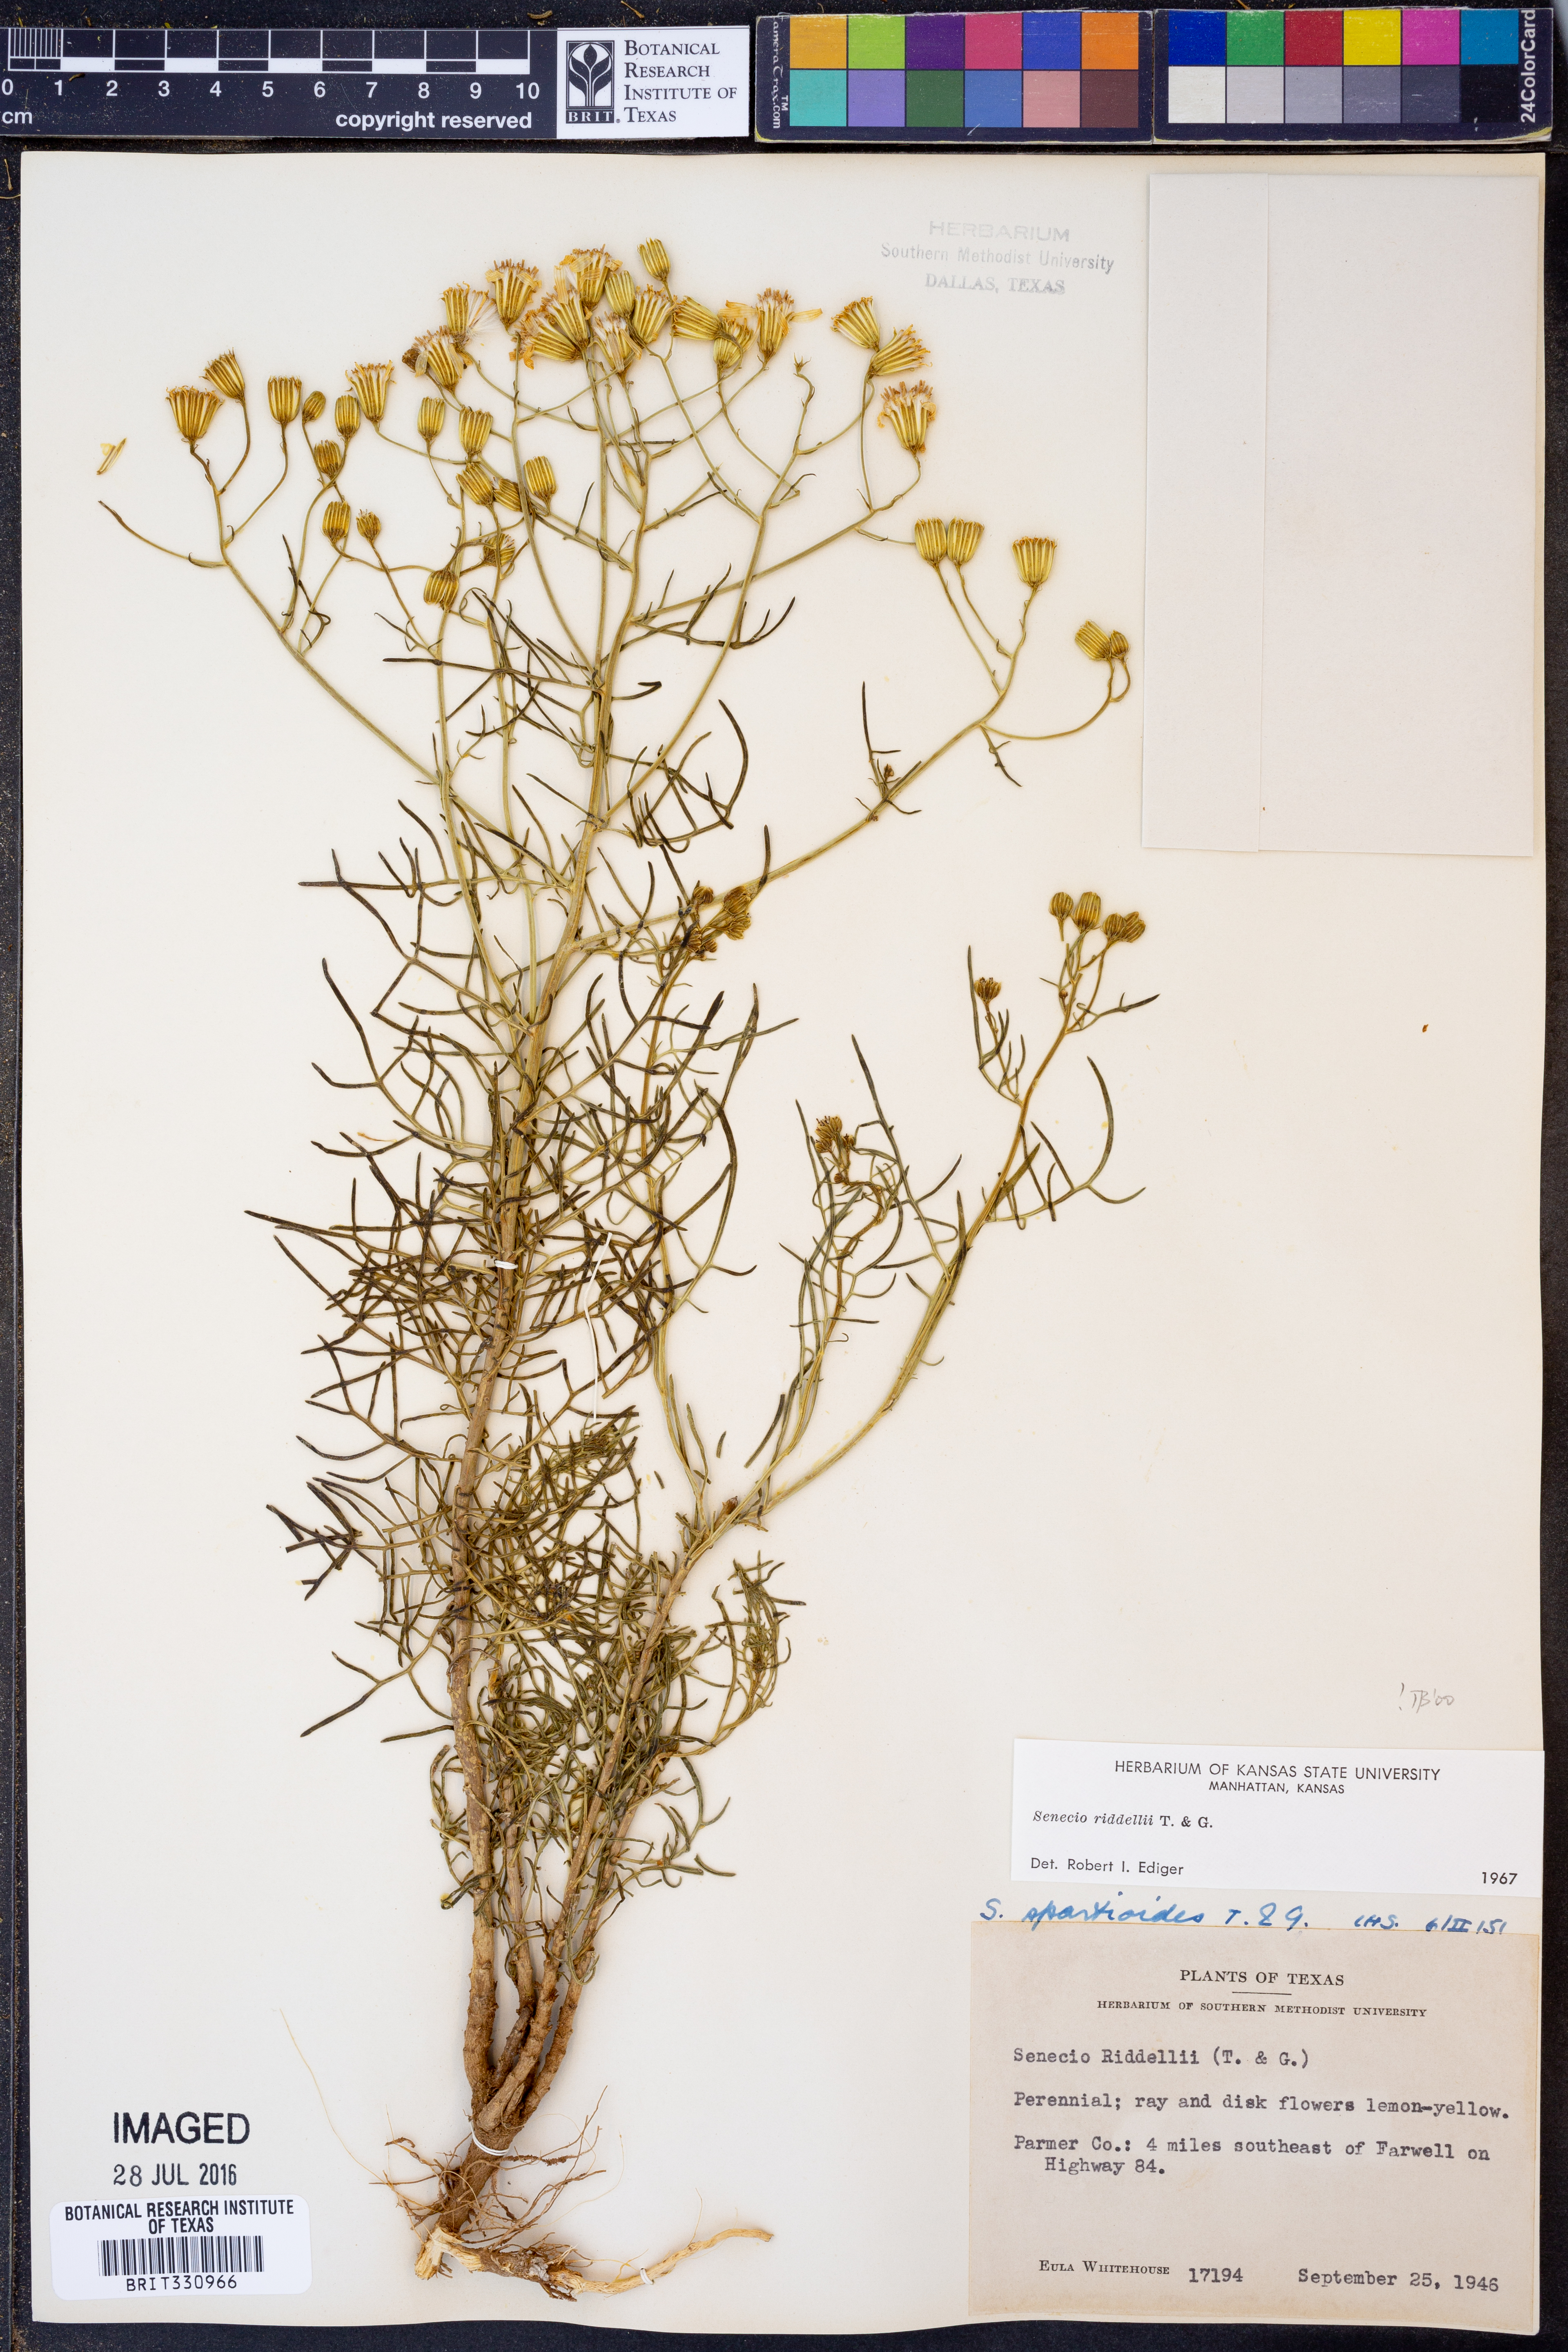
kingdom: Plantae
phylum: Tracheophyta
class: Magnoliopsida
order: Asterales
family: Asteraceae
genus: Senecio
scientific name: Senecio riddellii
